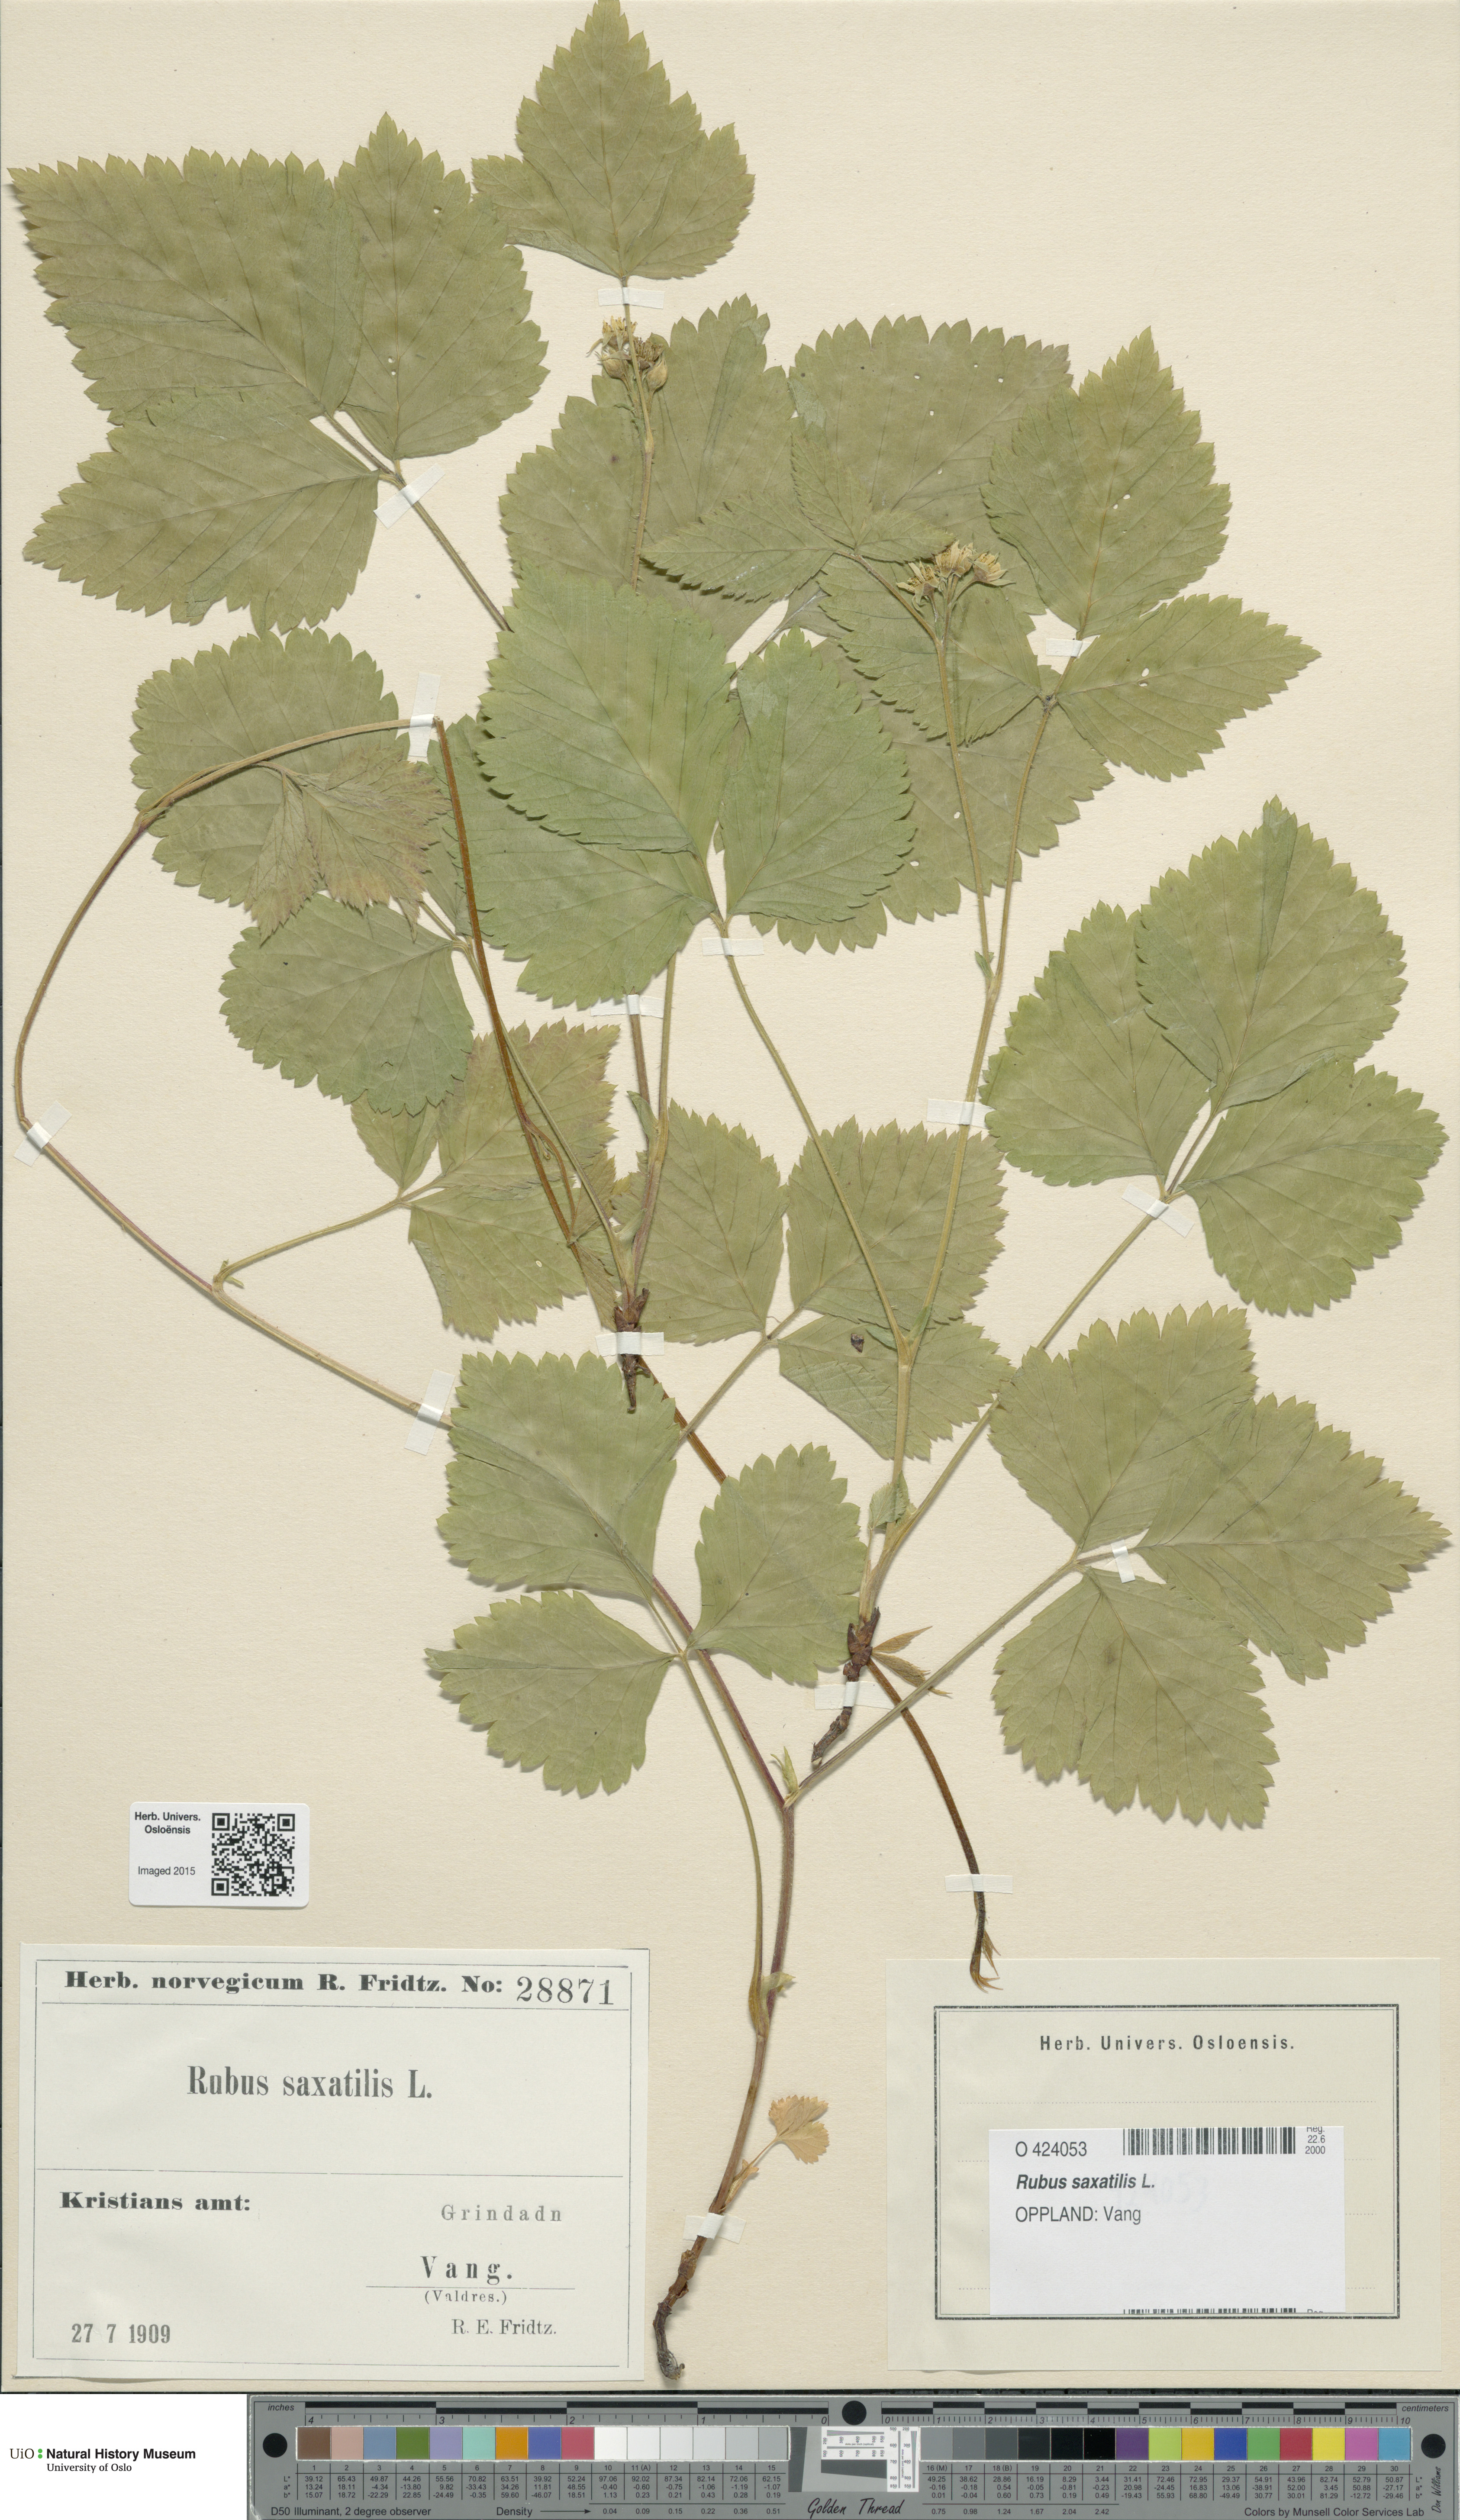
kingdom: Plantae
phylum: Tracheophyta
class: Magnoliopsida
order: Rosales
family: Rosaceae
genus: Rubus
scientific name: Rubus saxatilis
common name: Stone bramble
